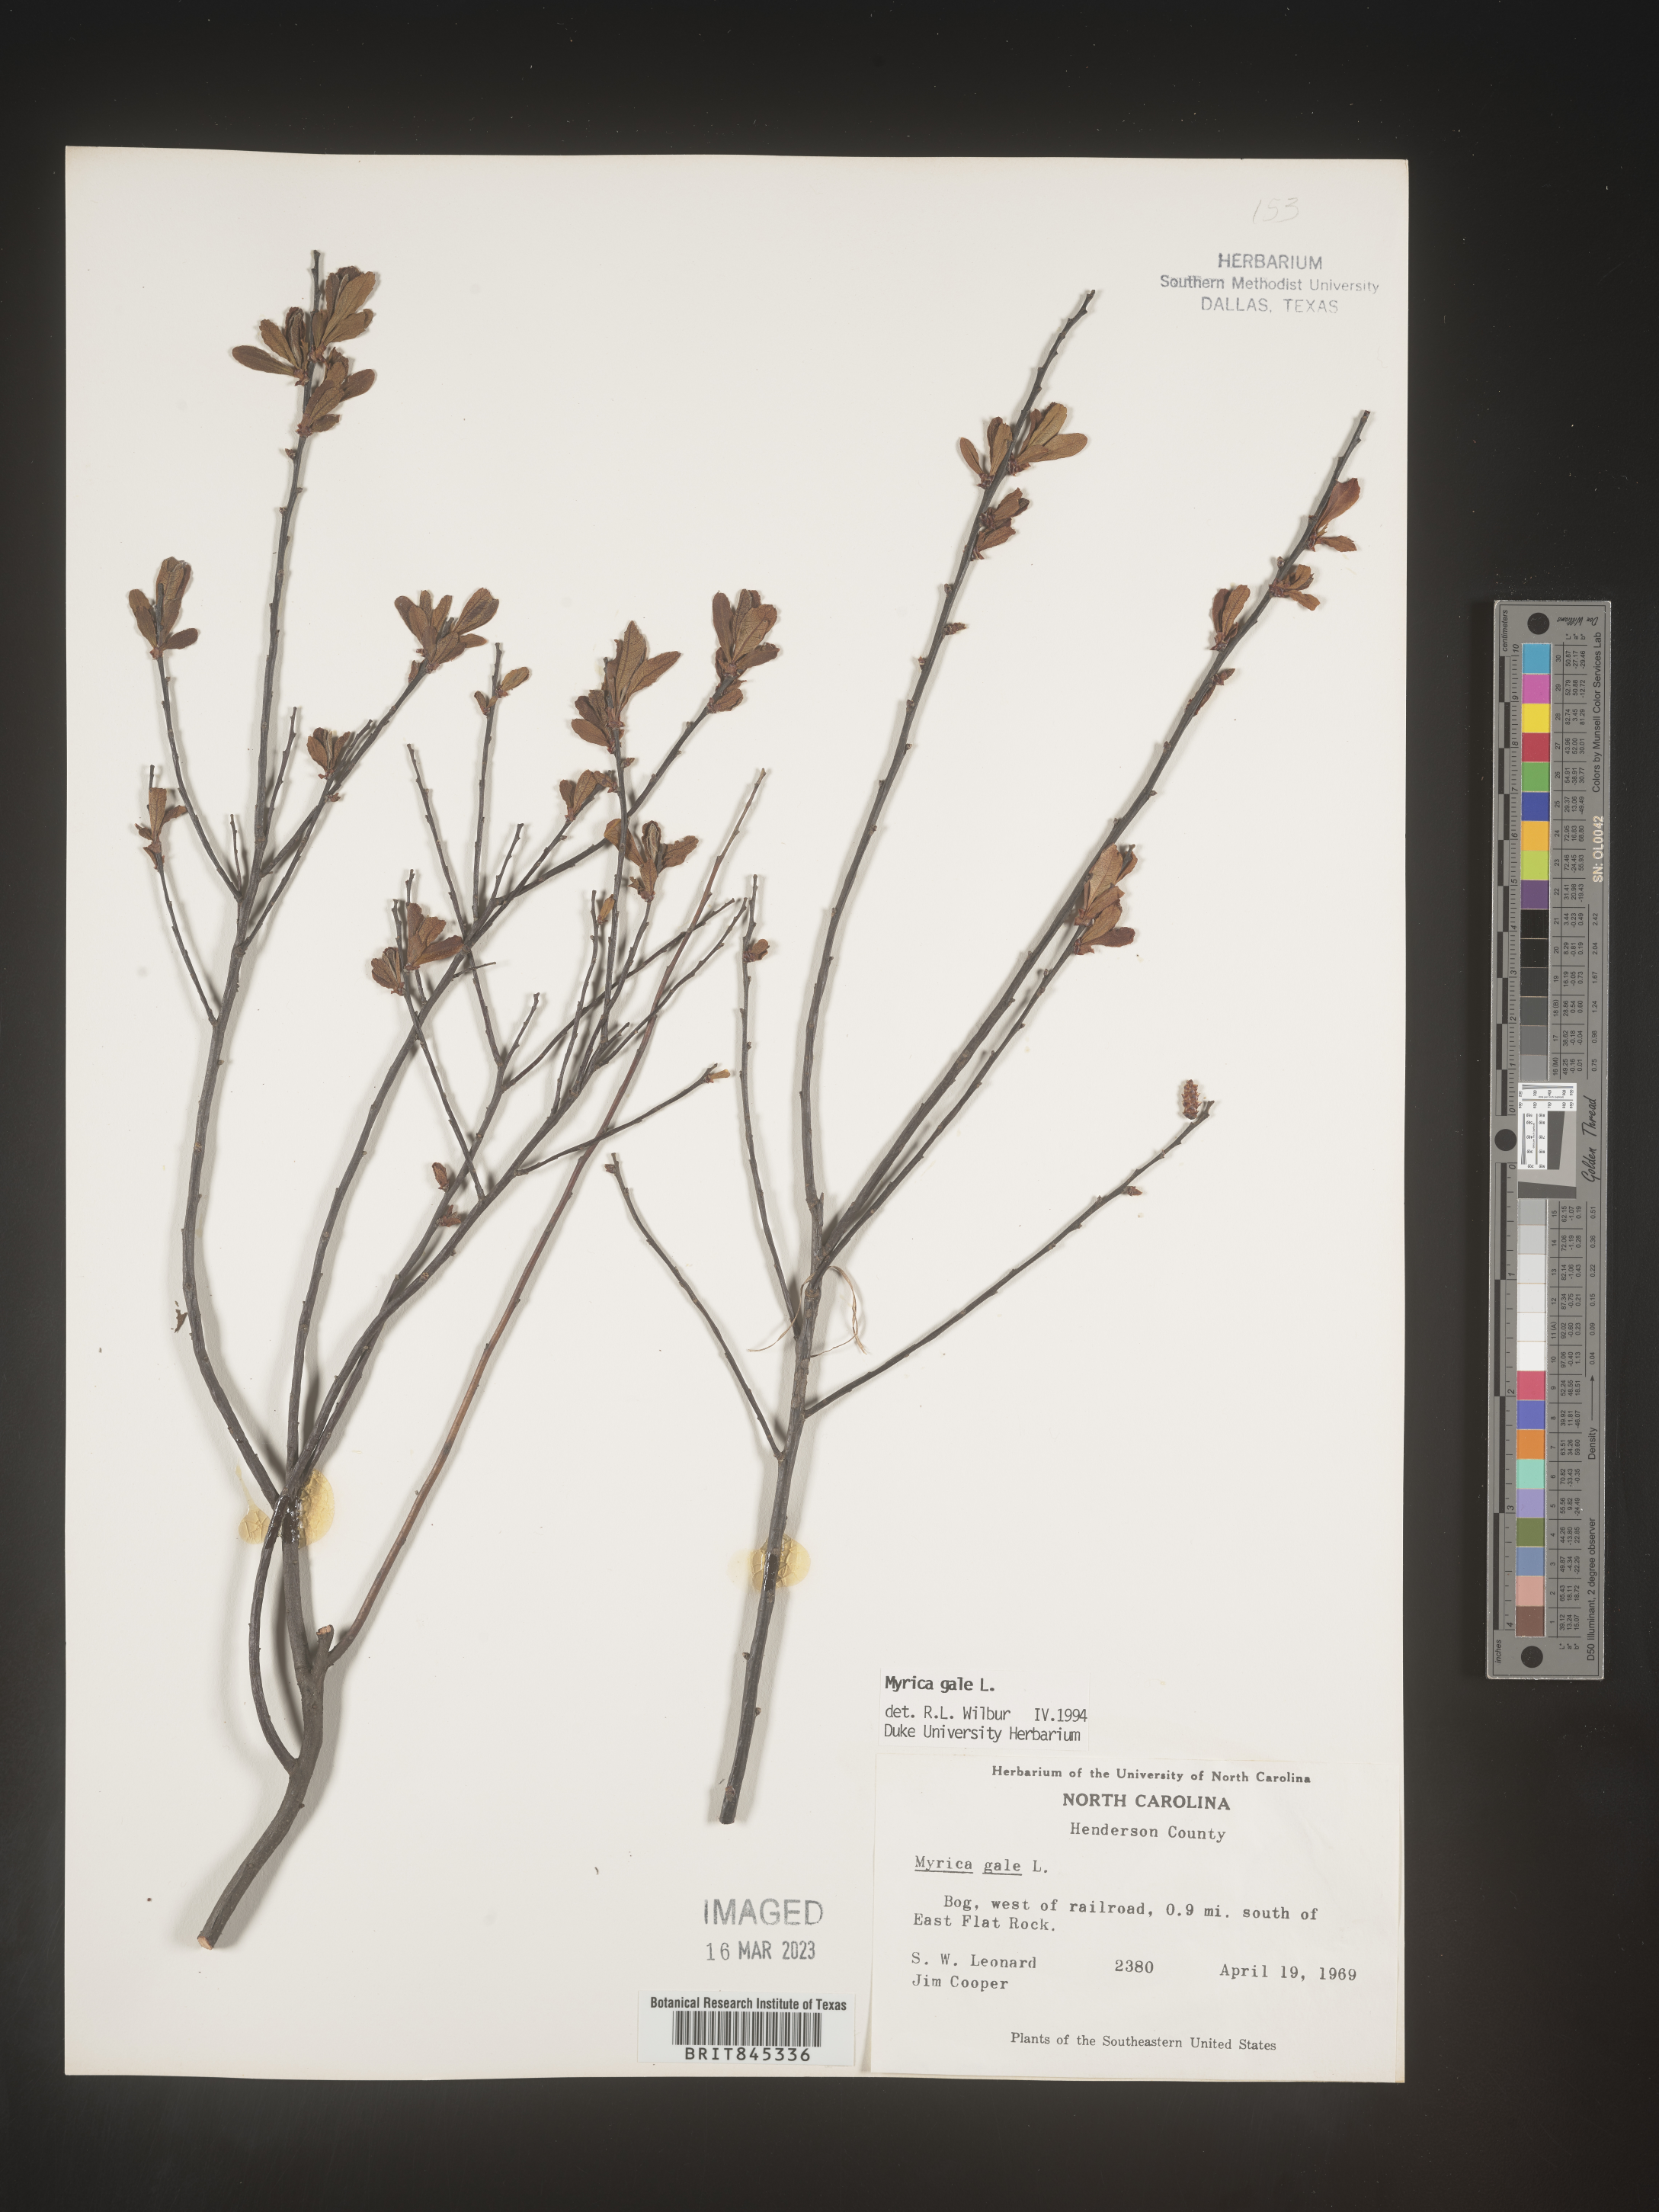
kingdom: Plantae
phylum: Tracheophyta
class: Magnoliopsida
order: Fagales
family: Myricaceae
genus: Myrica
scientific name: Myrica gale
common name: Sweet gale
